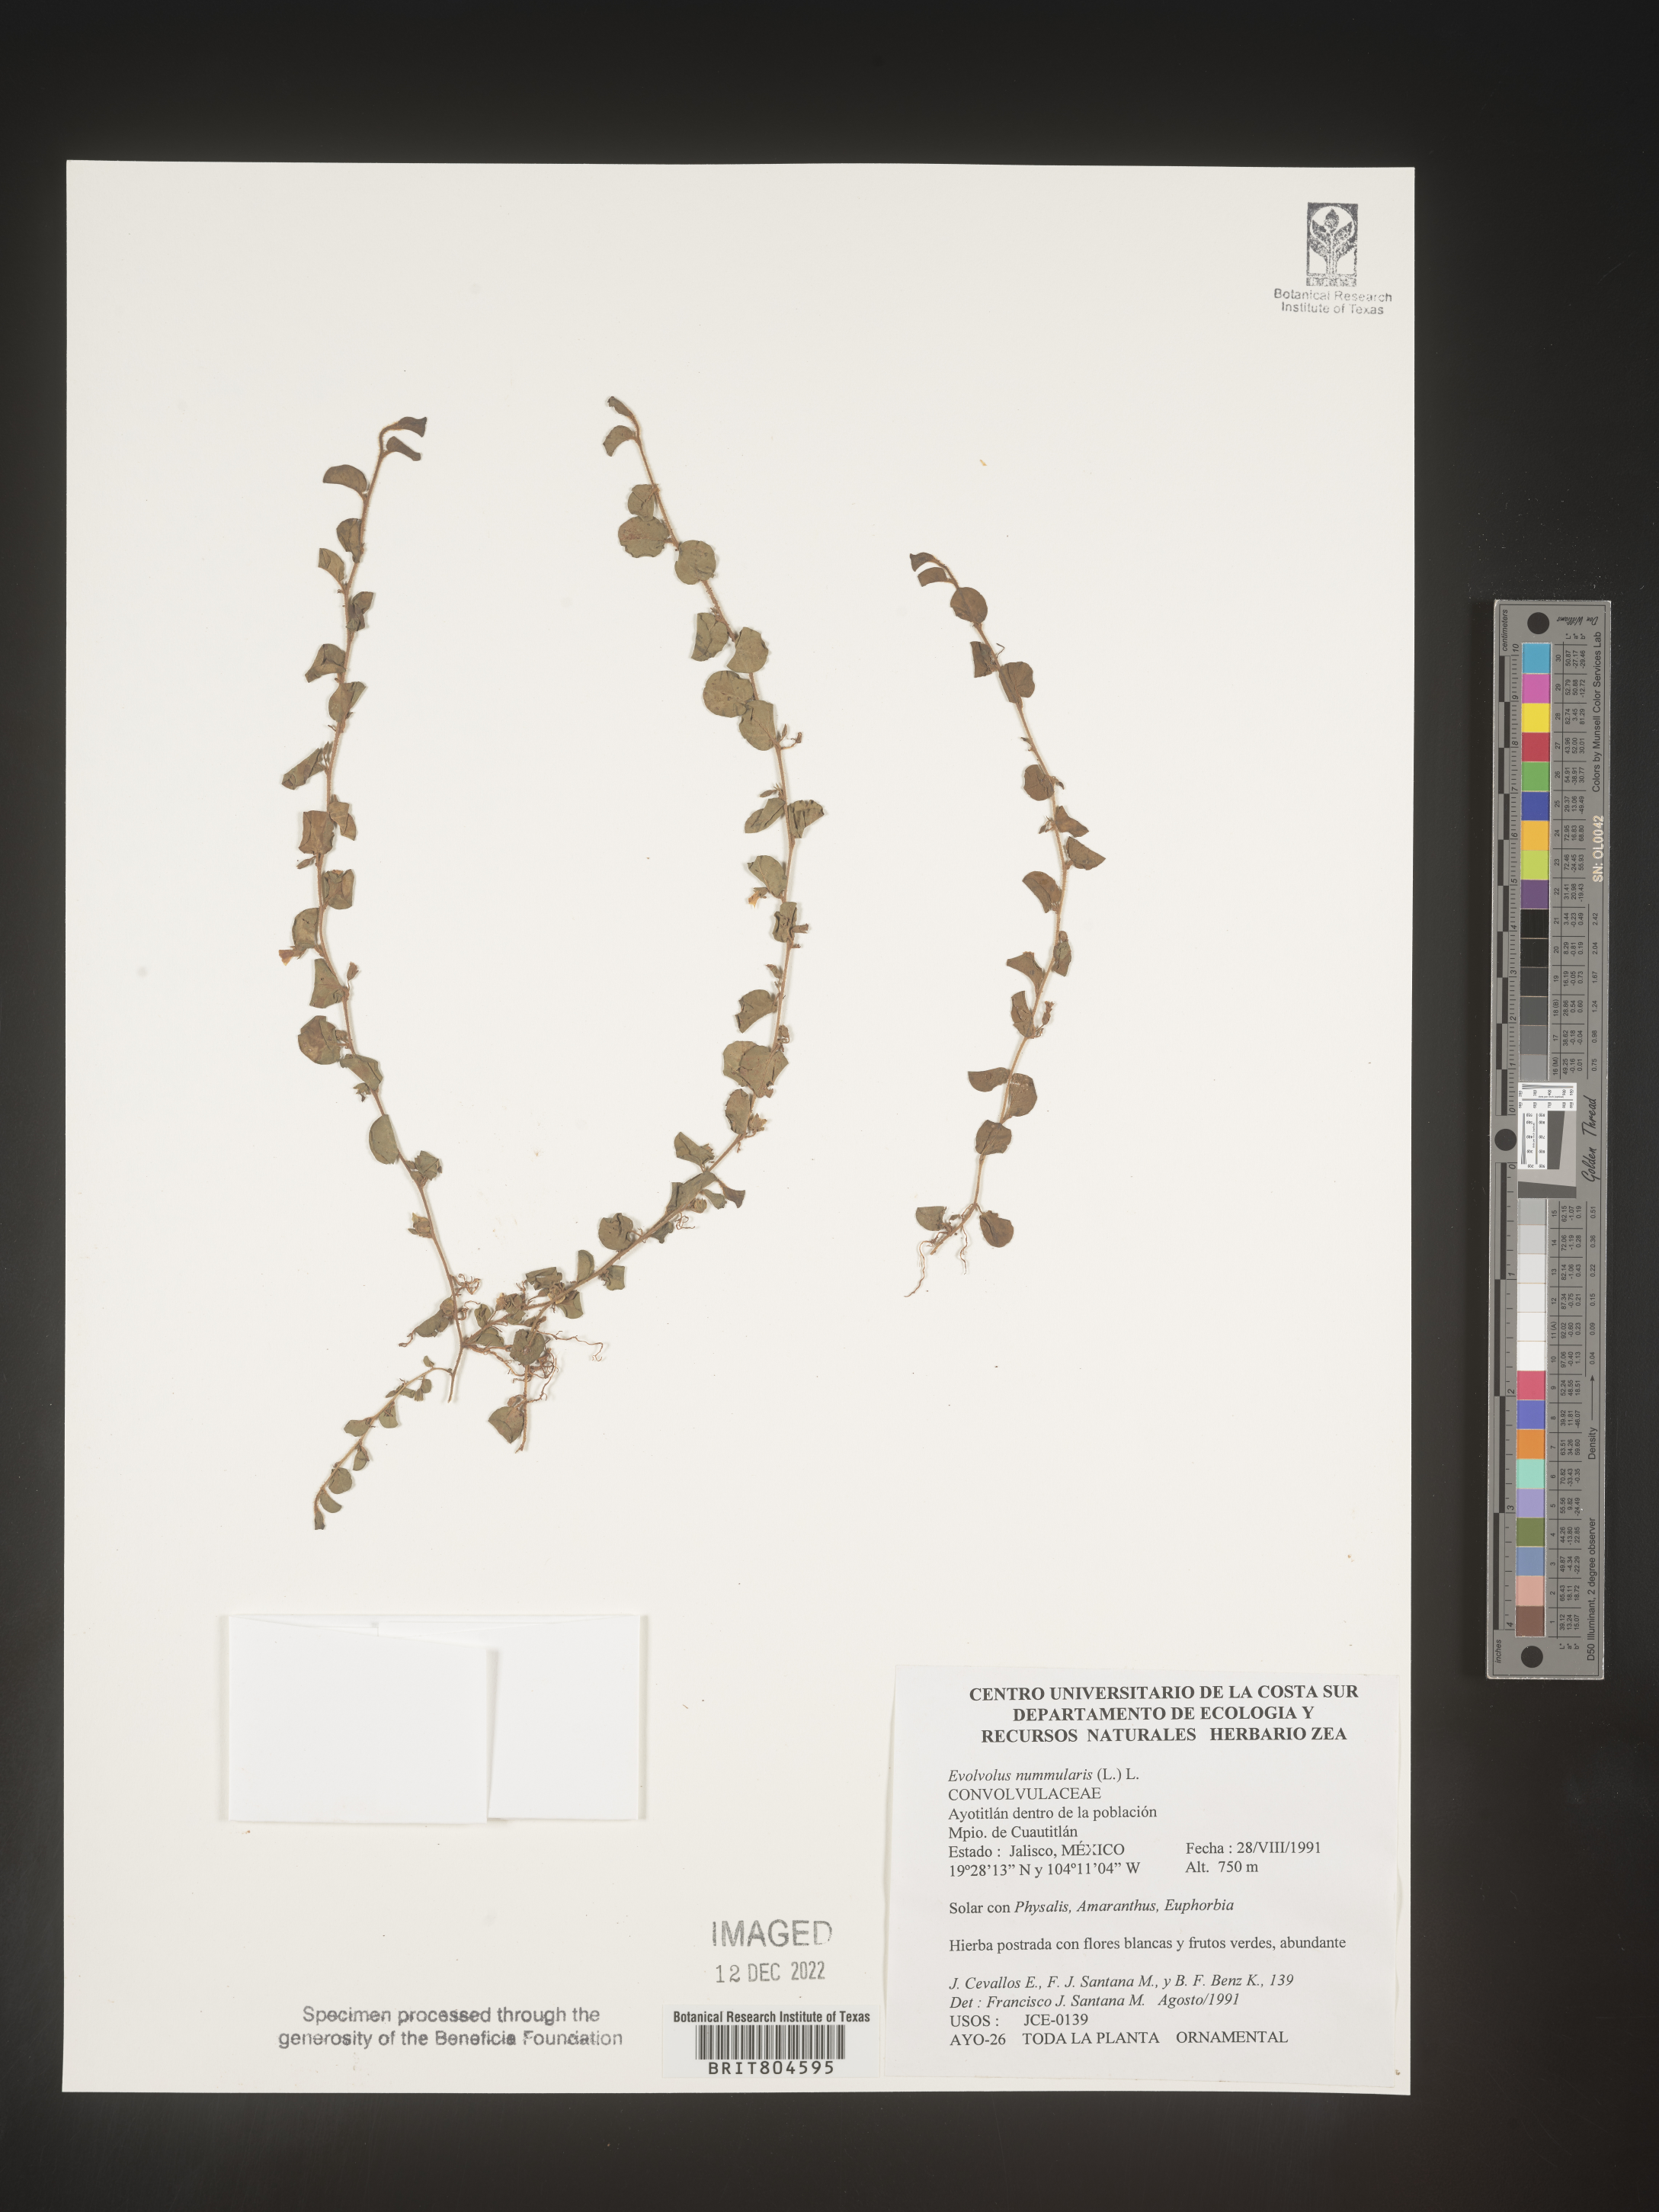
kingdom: Plantae
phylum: Tracheophyta
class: Magnoliopsida
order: Solanales
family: Convolvulaceae
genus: Evolvulus
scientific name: Evolvulus
